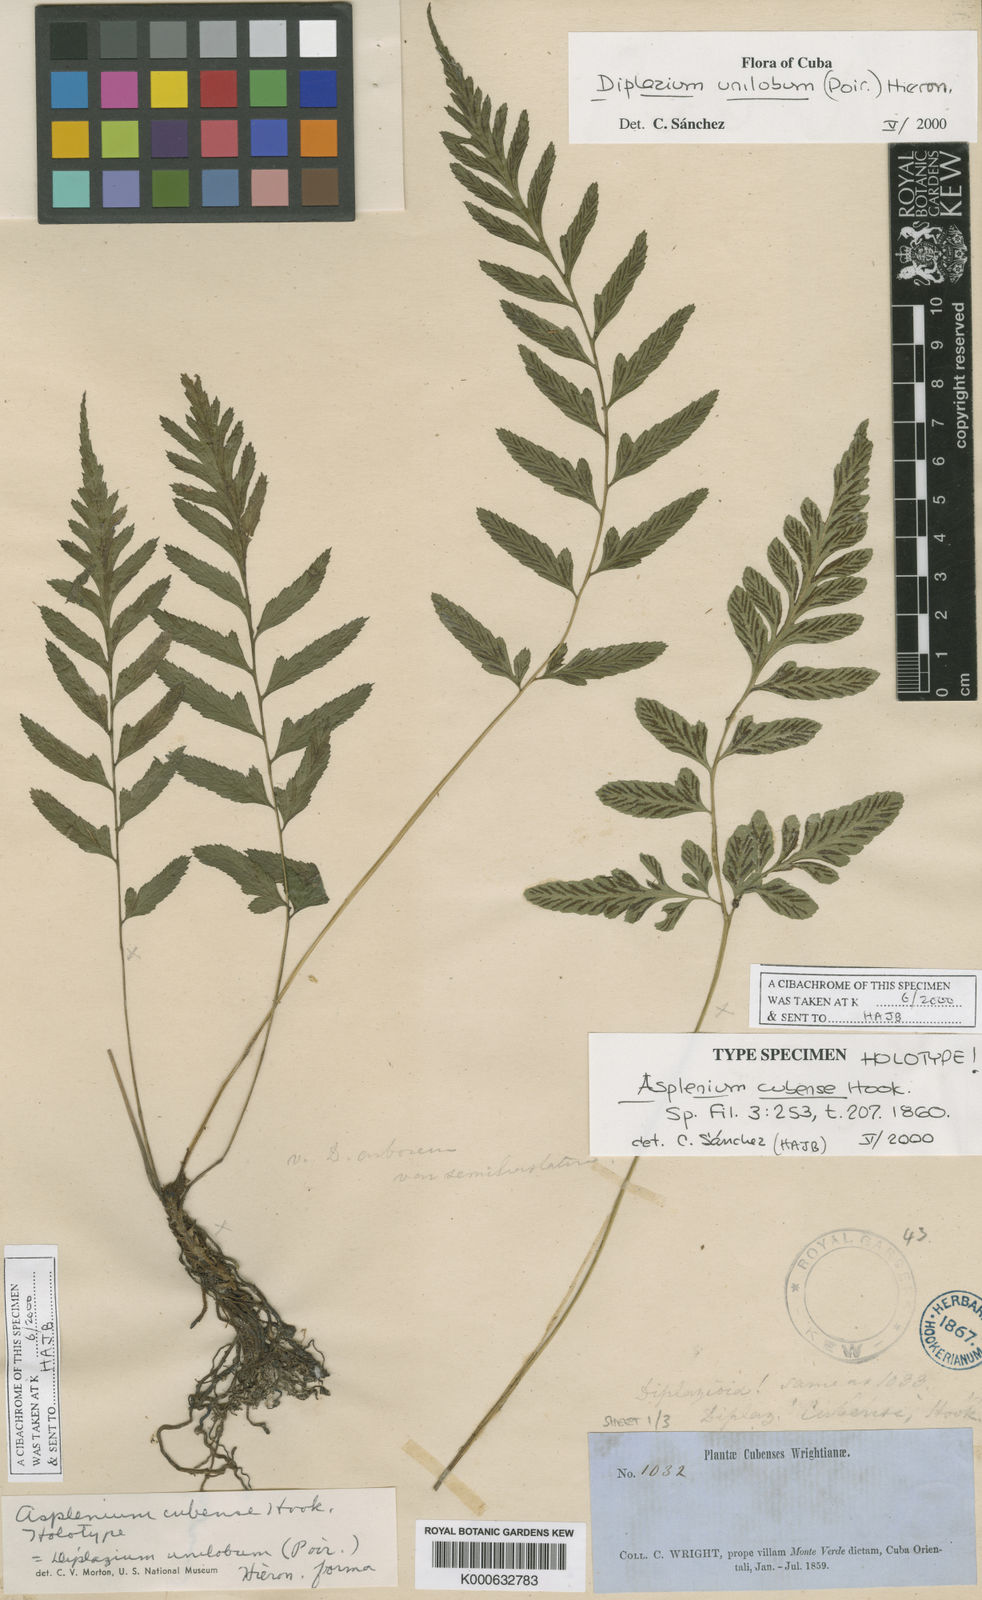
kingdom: Plantae
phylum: Tracheophyta
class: Polypodiopsida
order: Polypodiales
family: Athyriaceae
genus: Diplazium
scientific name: Diplazium unilobum
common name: Singlelobe twinsorus fern
